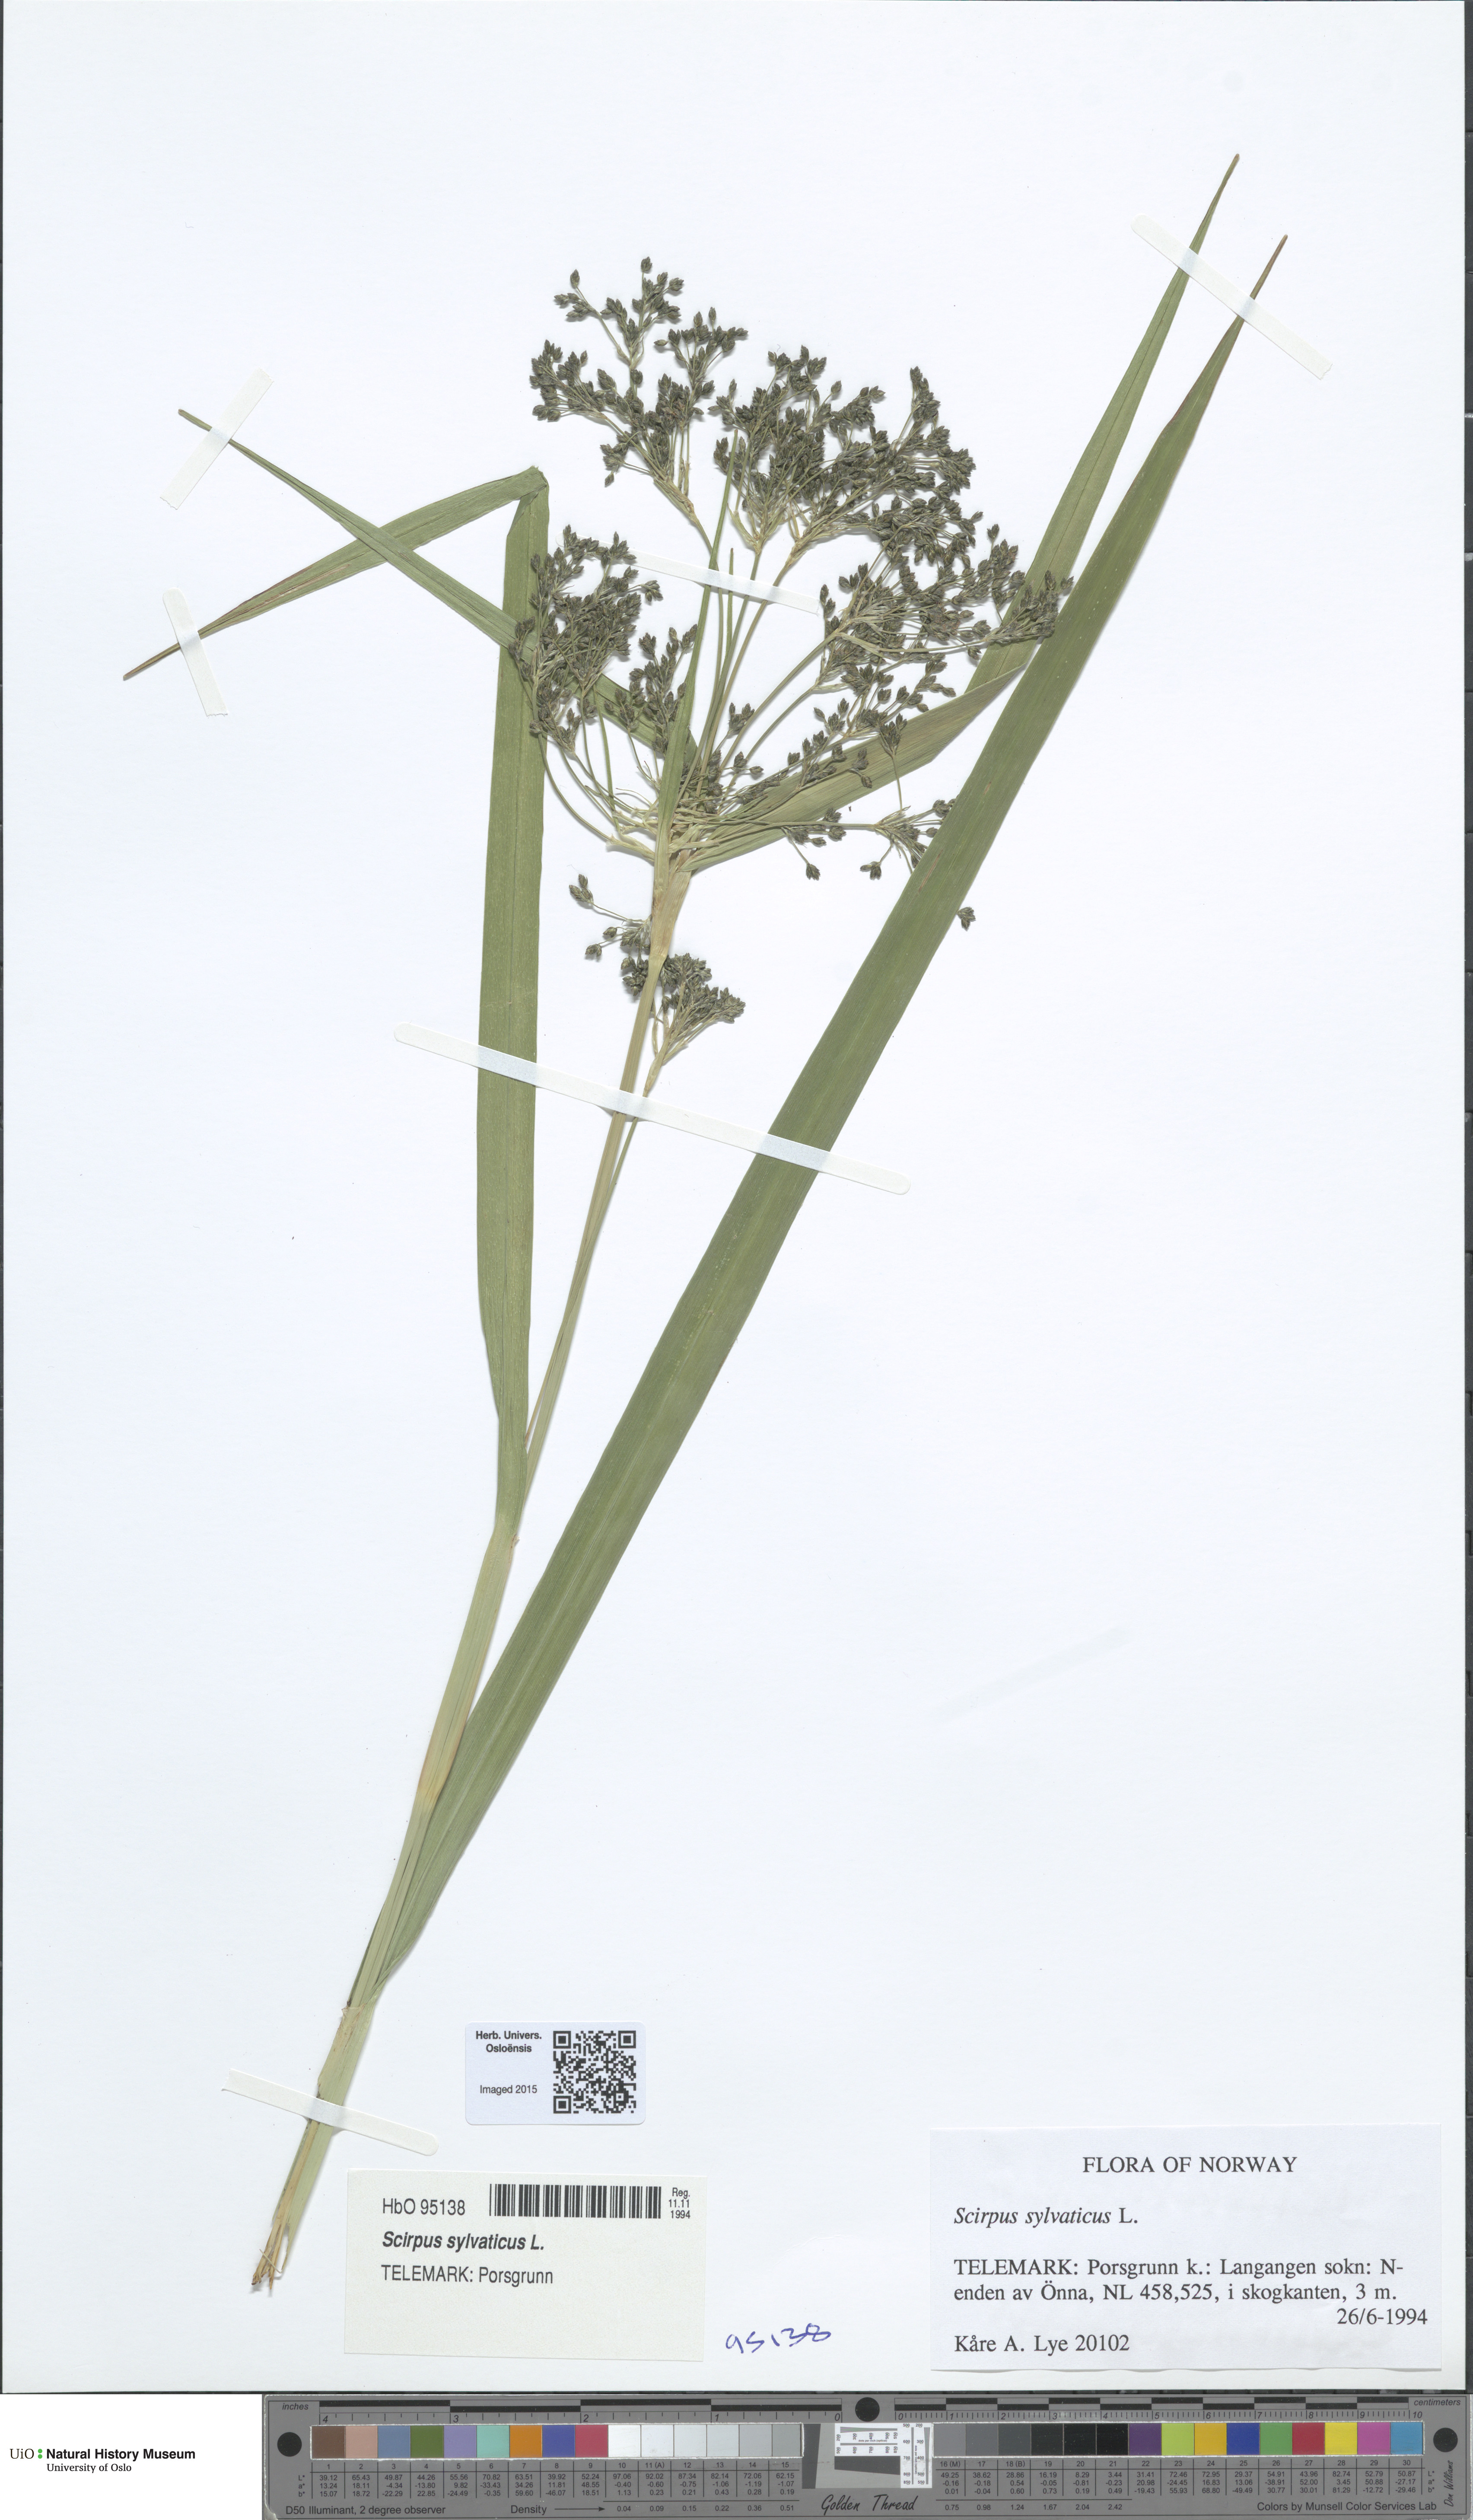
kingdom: Plantae
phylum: Tracheophyta
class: Liliopsida
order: Poales
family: Cyperaceae
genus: Scirpus
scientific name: Scirpus sylvaticus
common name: Wood club-rush
